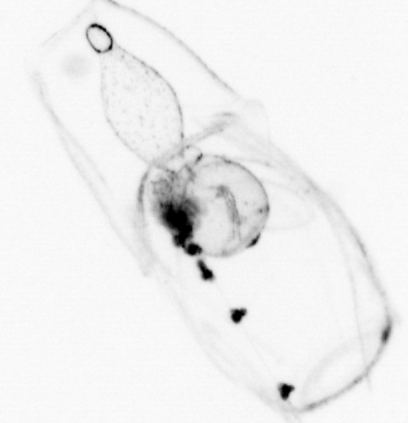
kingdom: Animalia
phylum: Chaetognatha
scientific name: Chaetognatha
